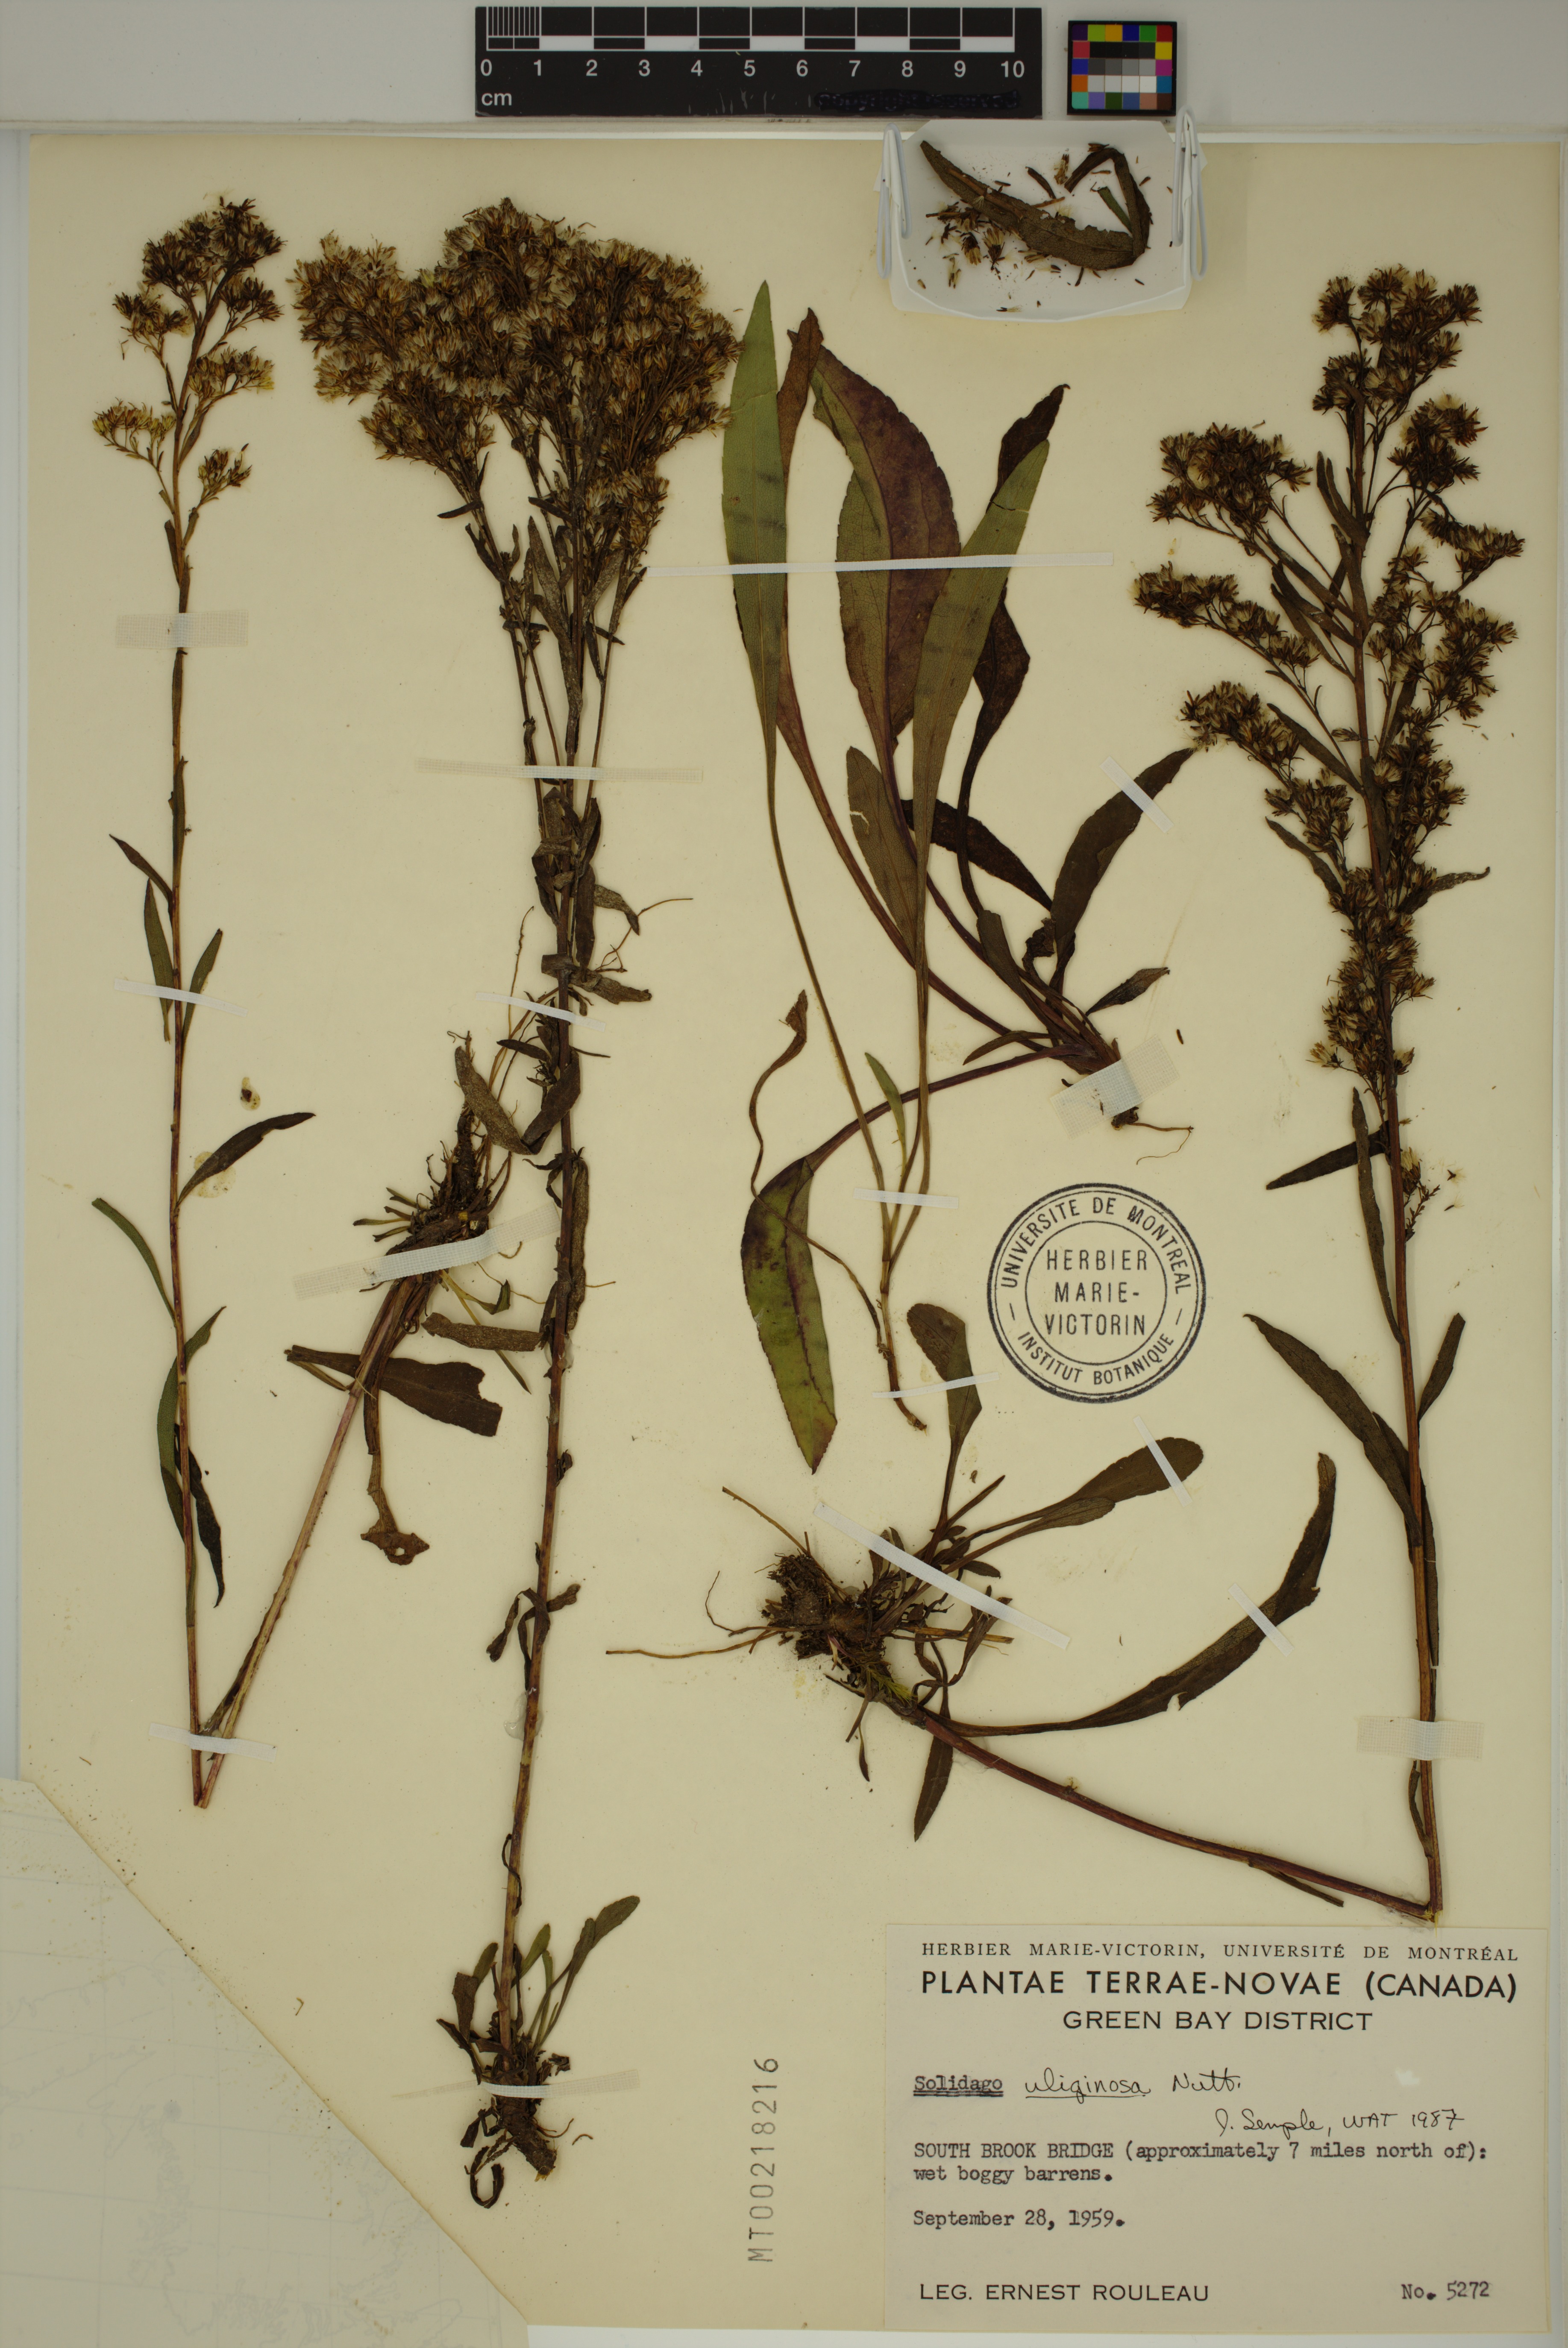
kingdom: Plantae
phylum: Tracheophyta
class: Magnoliopsida
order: Asterales
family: Asteraceae
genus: Solidago
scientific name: Solidago uliginosa
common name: Bog goldenrod
